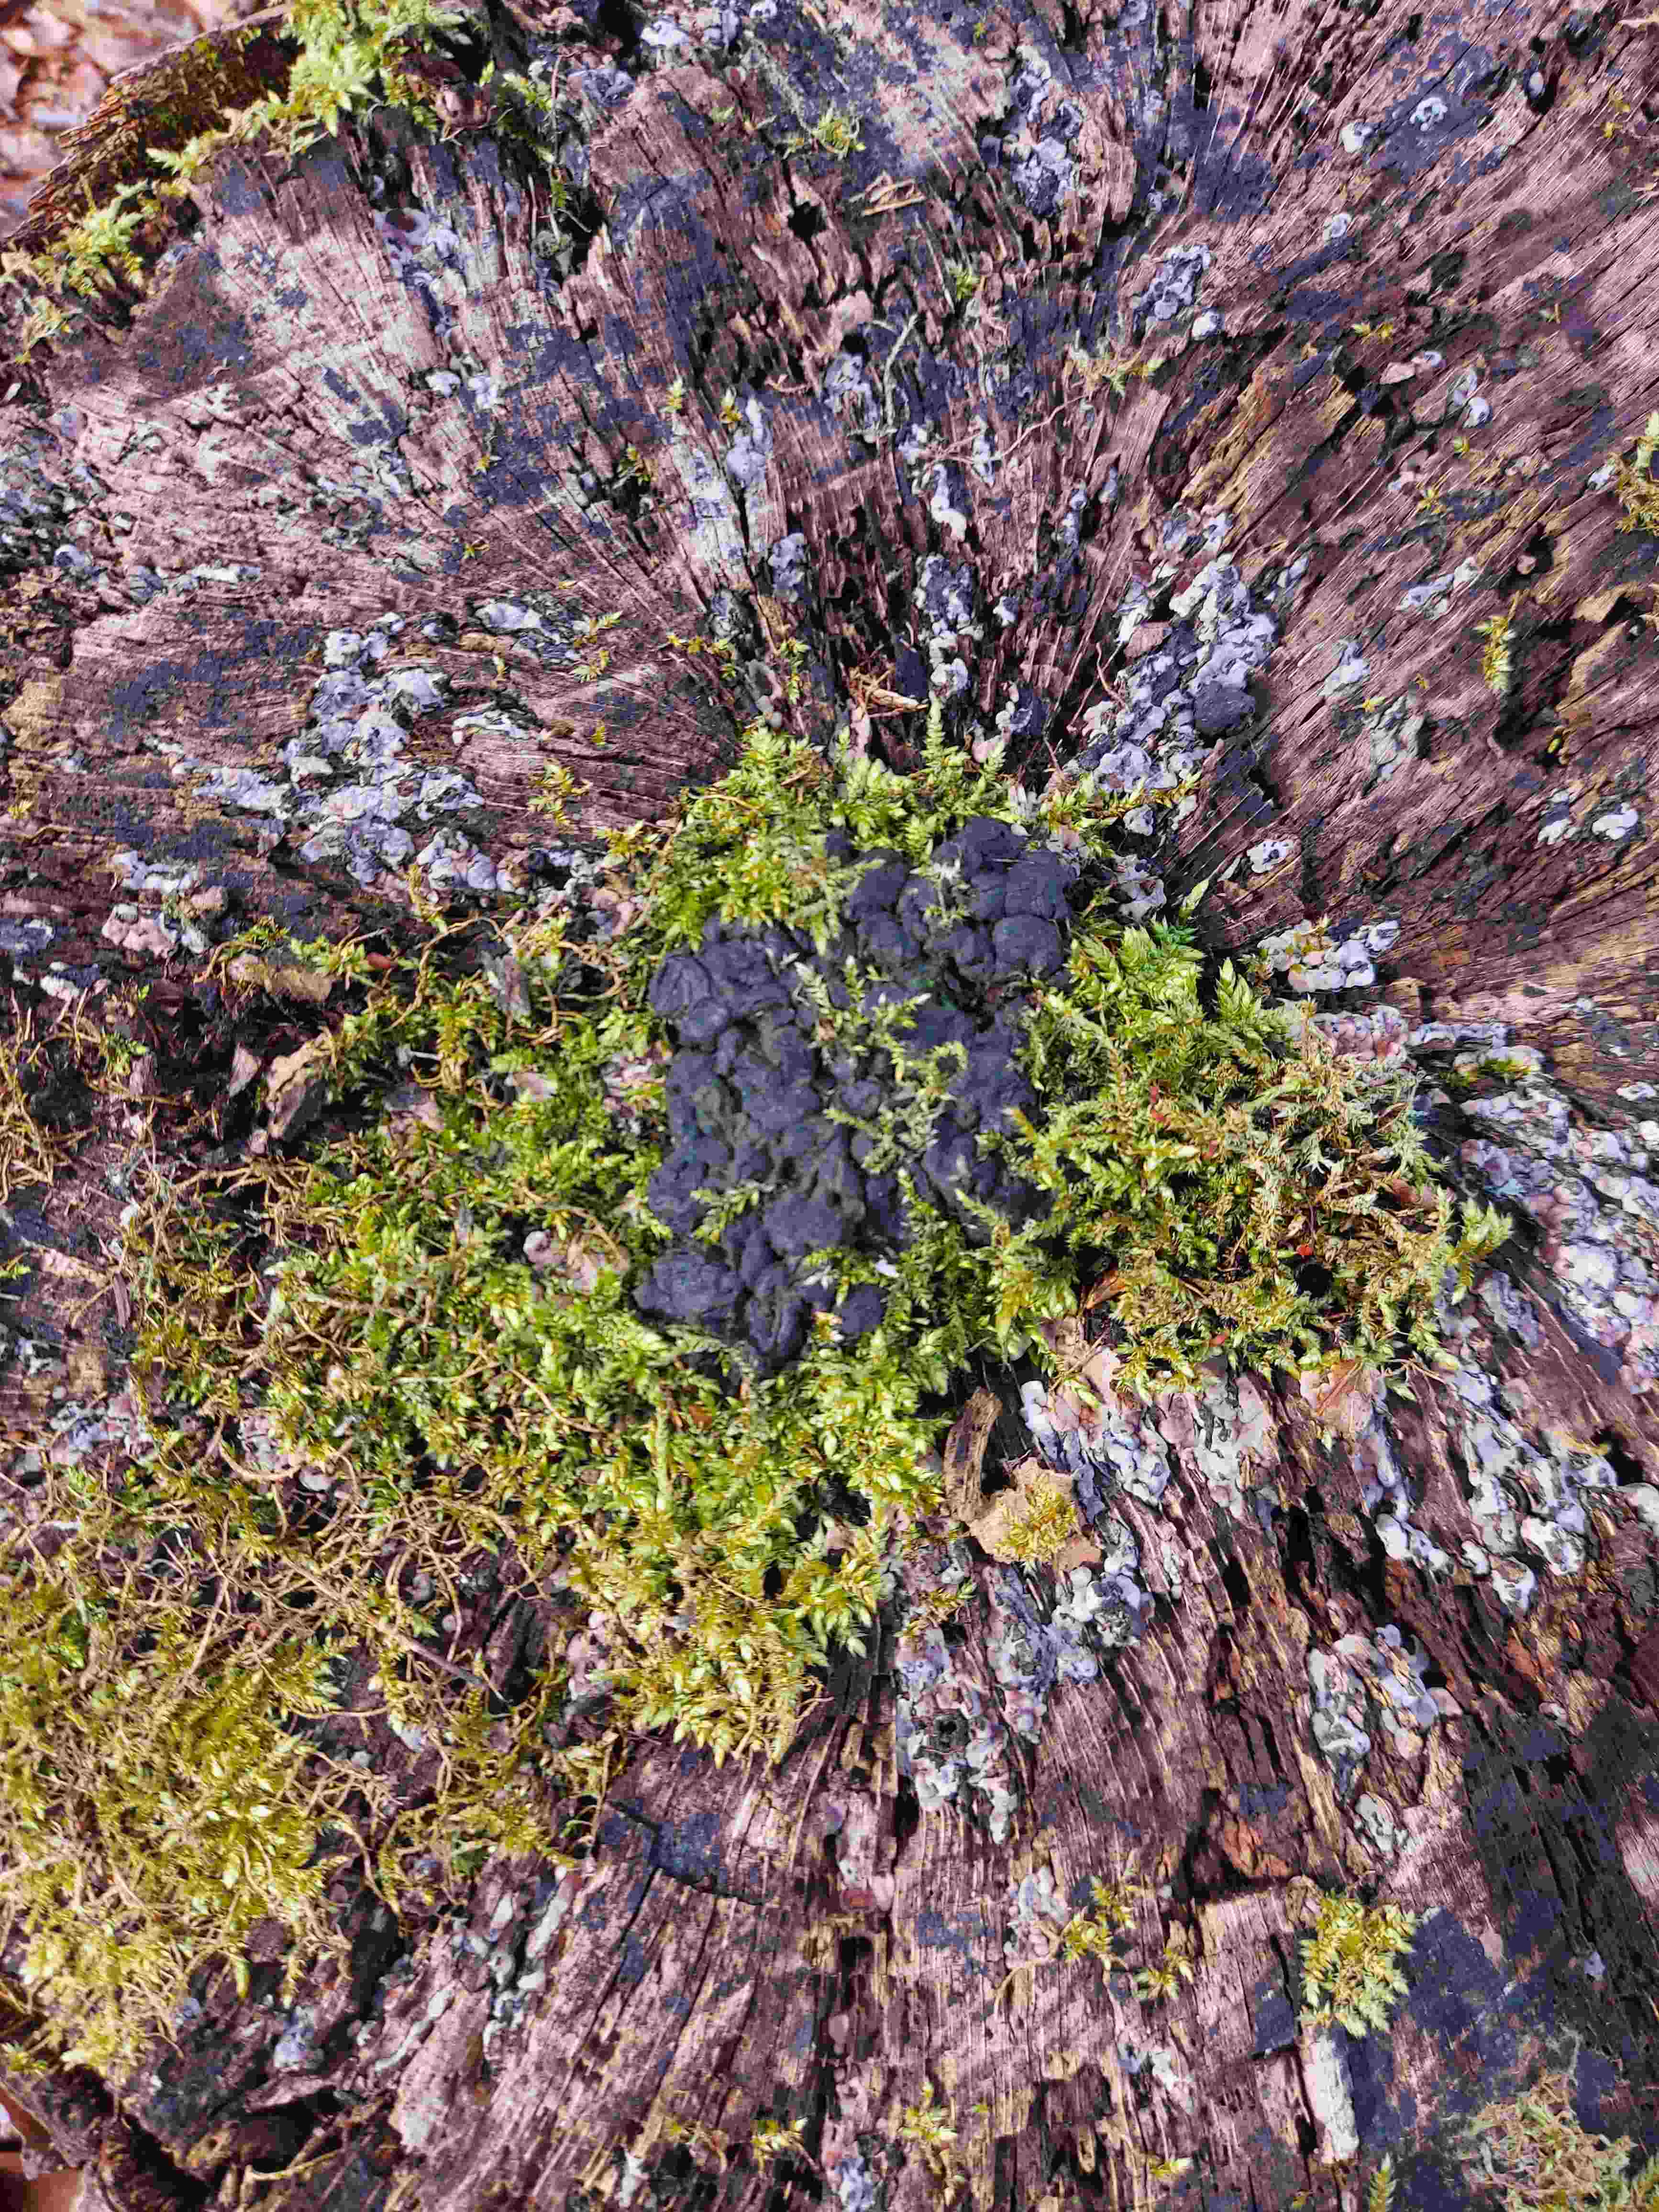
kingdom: Fungi
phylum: Ascomycota
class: Sordariomycetes
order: Xylariales
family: Xylariaceae
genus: Kretzschmaria
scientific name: Kretzschmaria deusta
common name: stor kulsvamp
